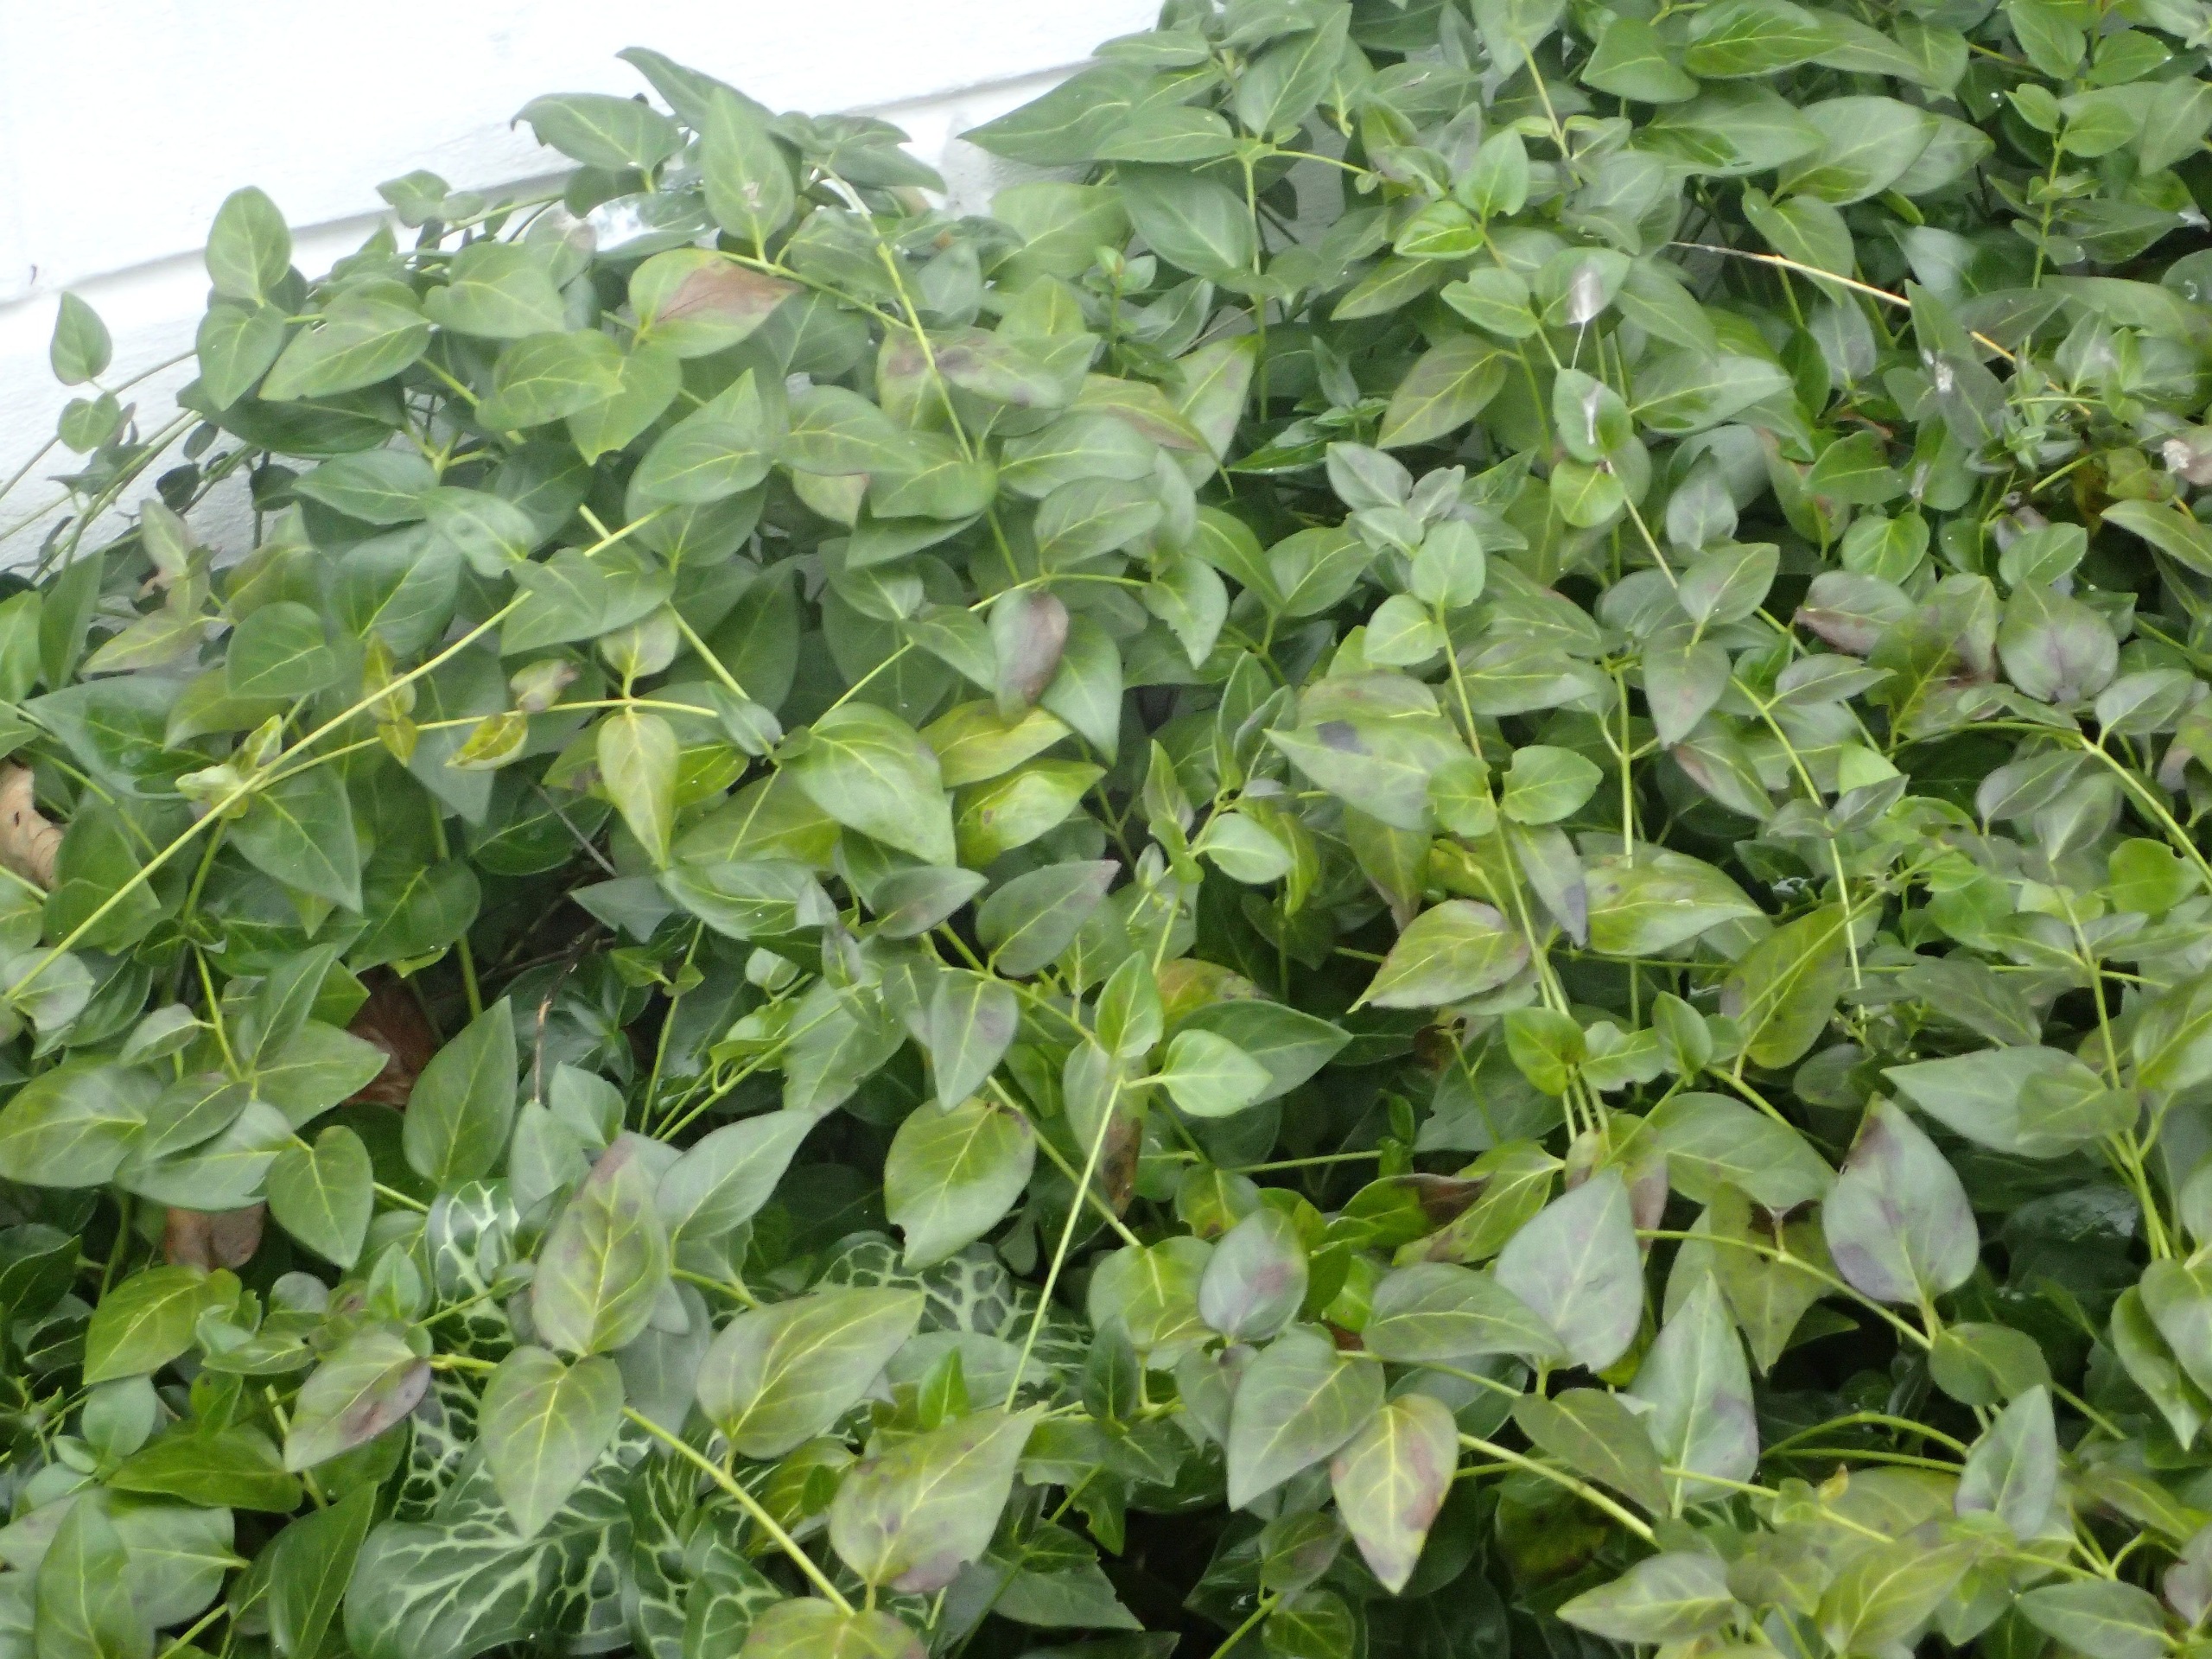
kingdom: Plantae
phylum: Tracheophyta
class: Magnoliopsida
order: Gentianales
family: Apocynaceae
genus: Vinca
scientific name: Vinca major
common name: Stor singrøn
